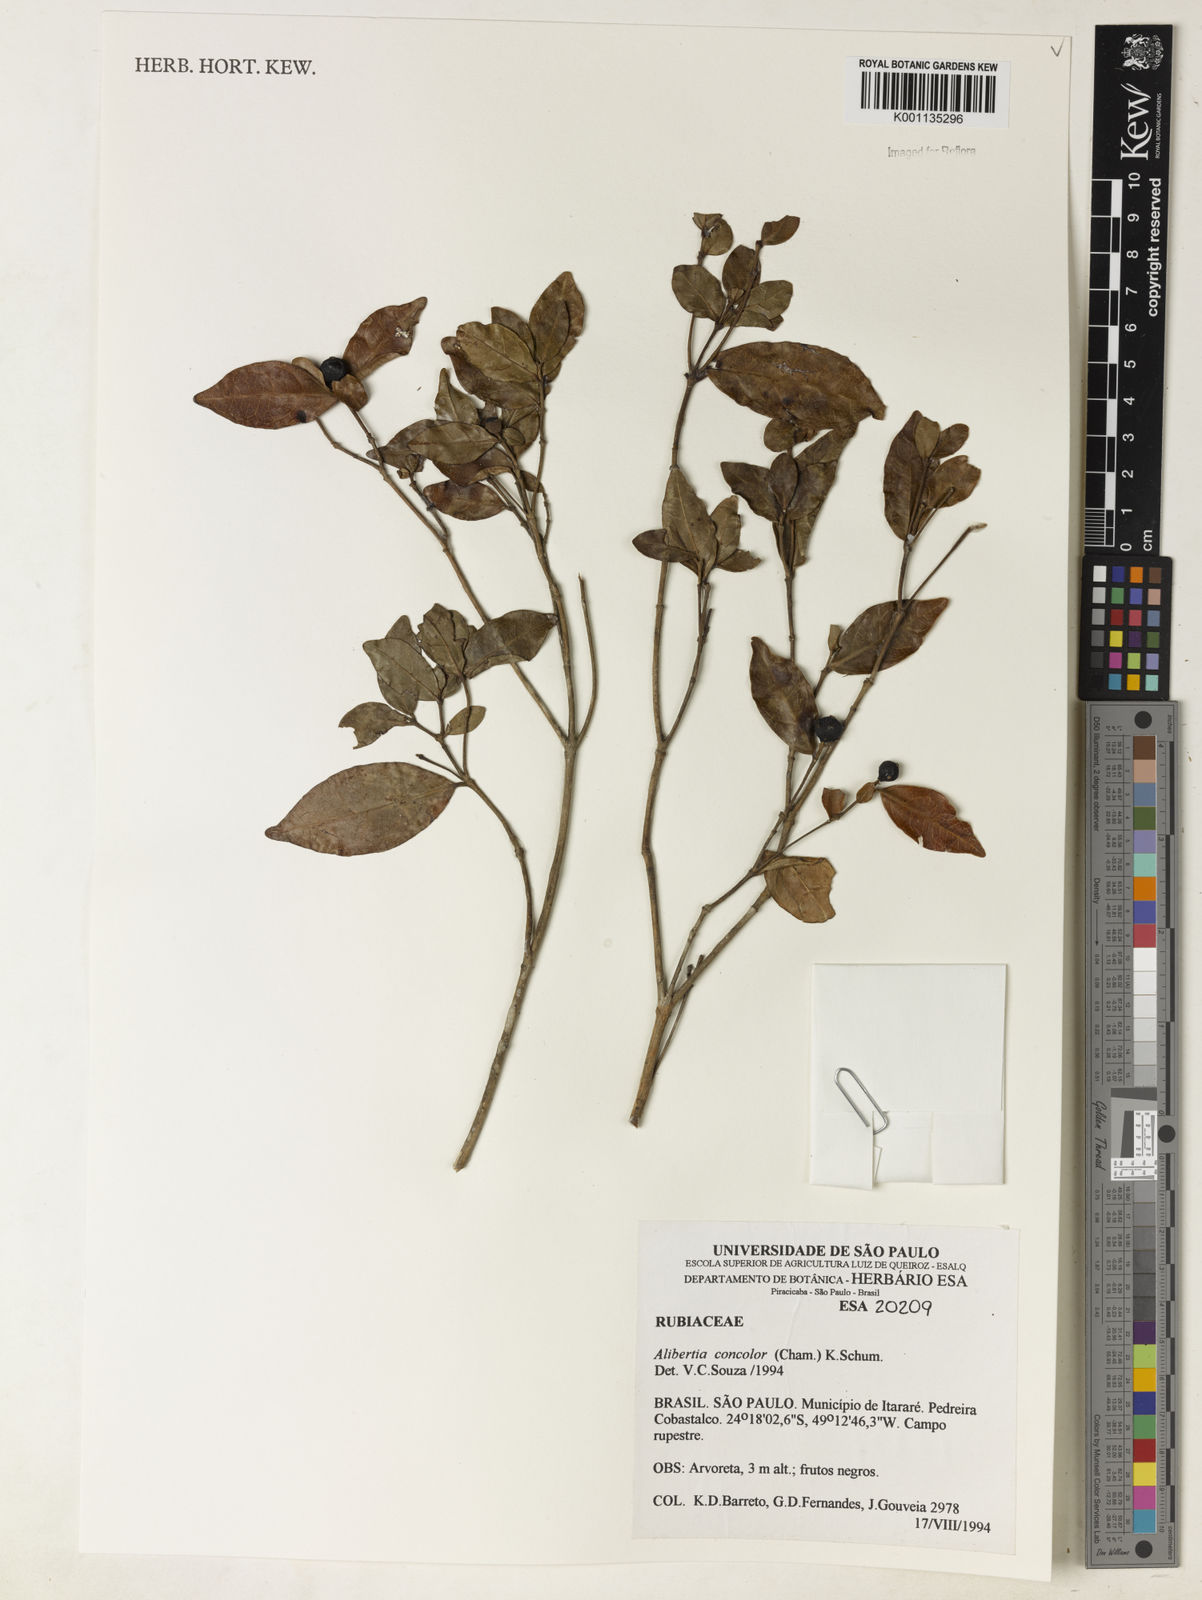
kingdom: Plantae
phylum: Tracheophyta
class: Magnoliopsida
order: Gentianales
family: Rubiaceae
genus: Cordiera
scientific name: Cordiera concolor
